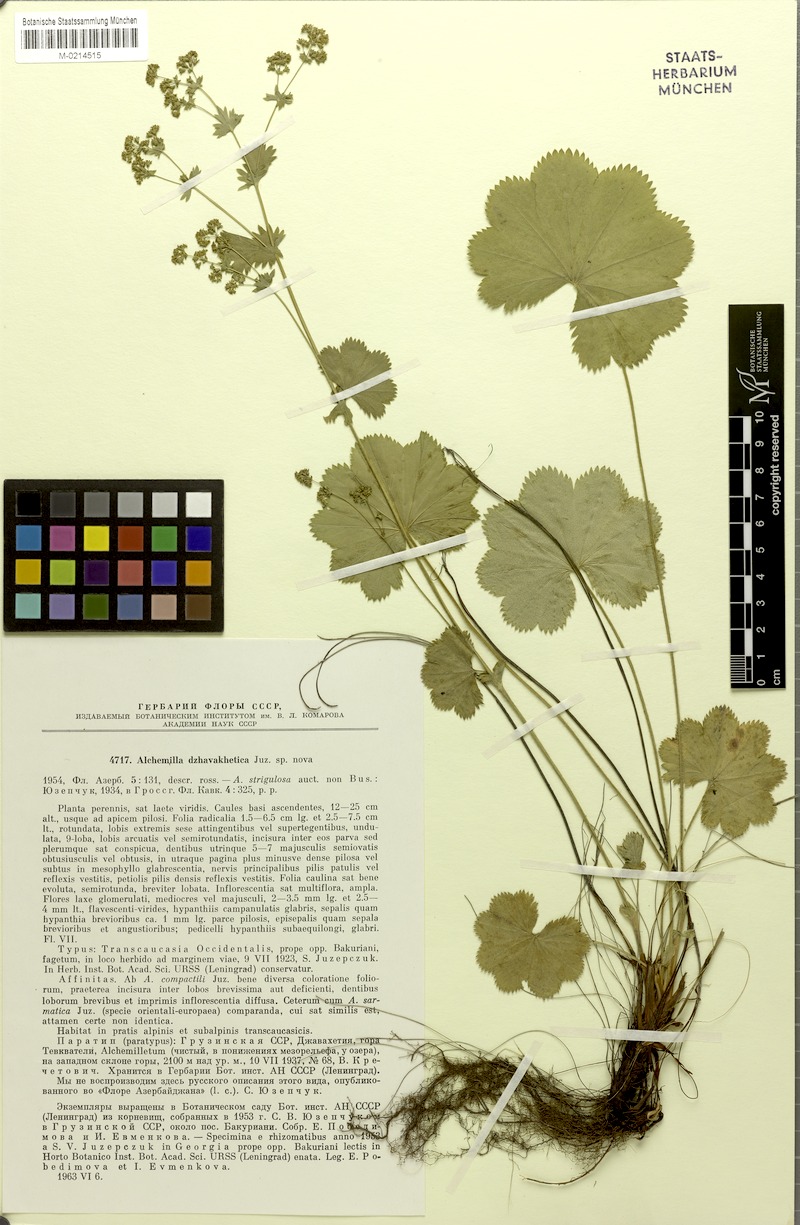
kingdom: Plantae
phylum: Tracheophyta
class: Magnoliopsida
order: Rosales
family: Rosaceae
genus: Alchemilla
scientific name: Alchemilla dzhavakhetica
